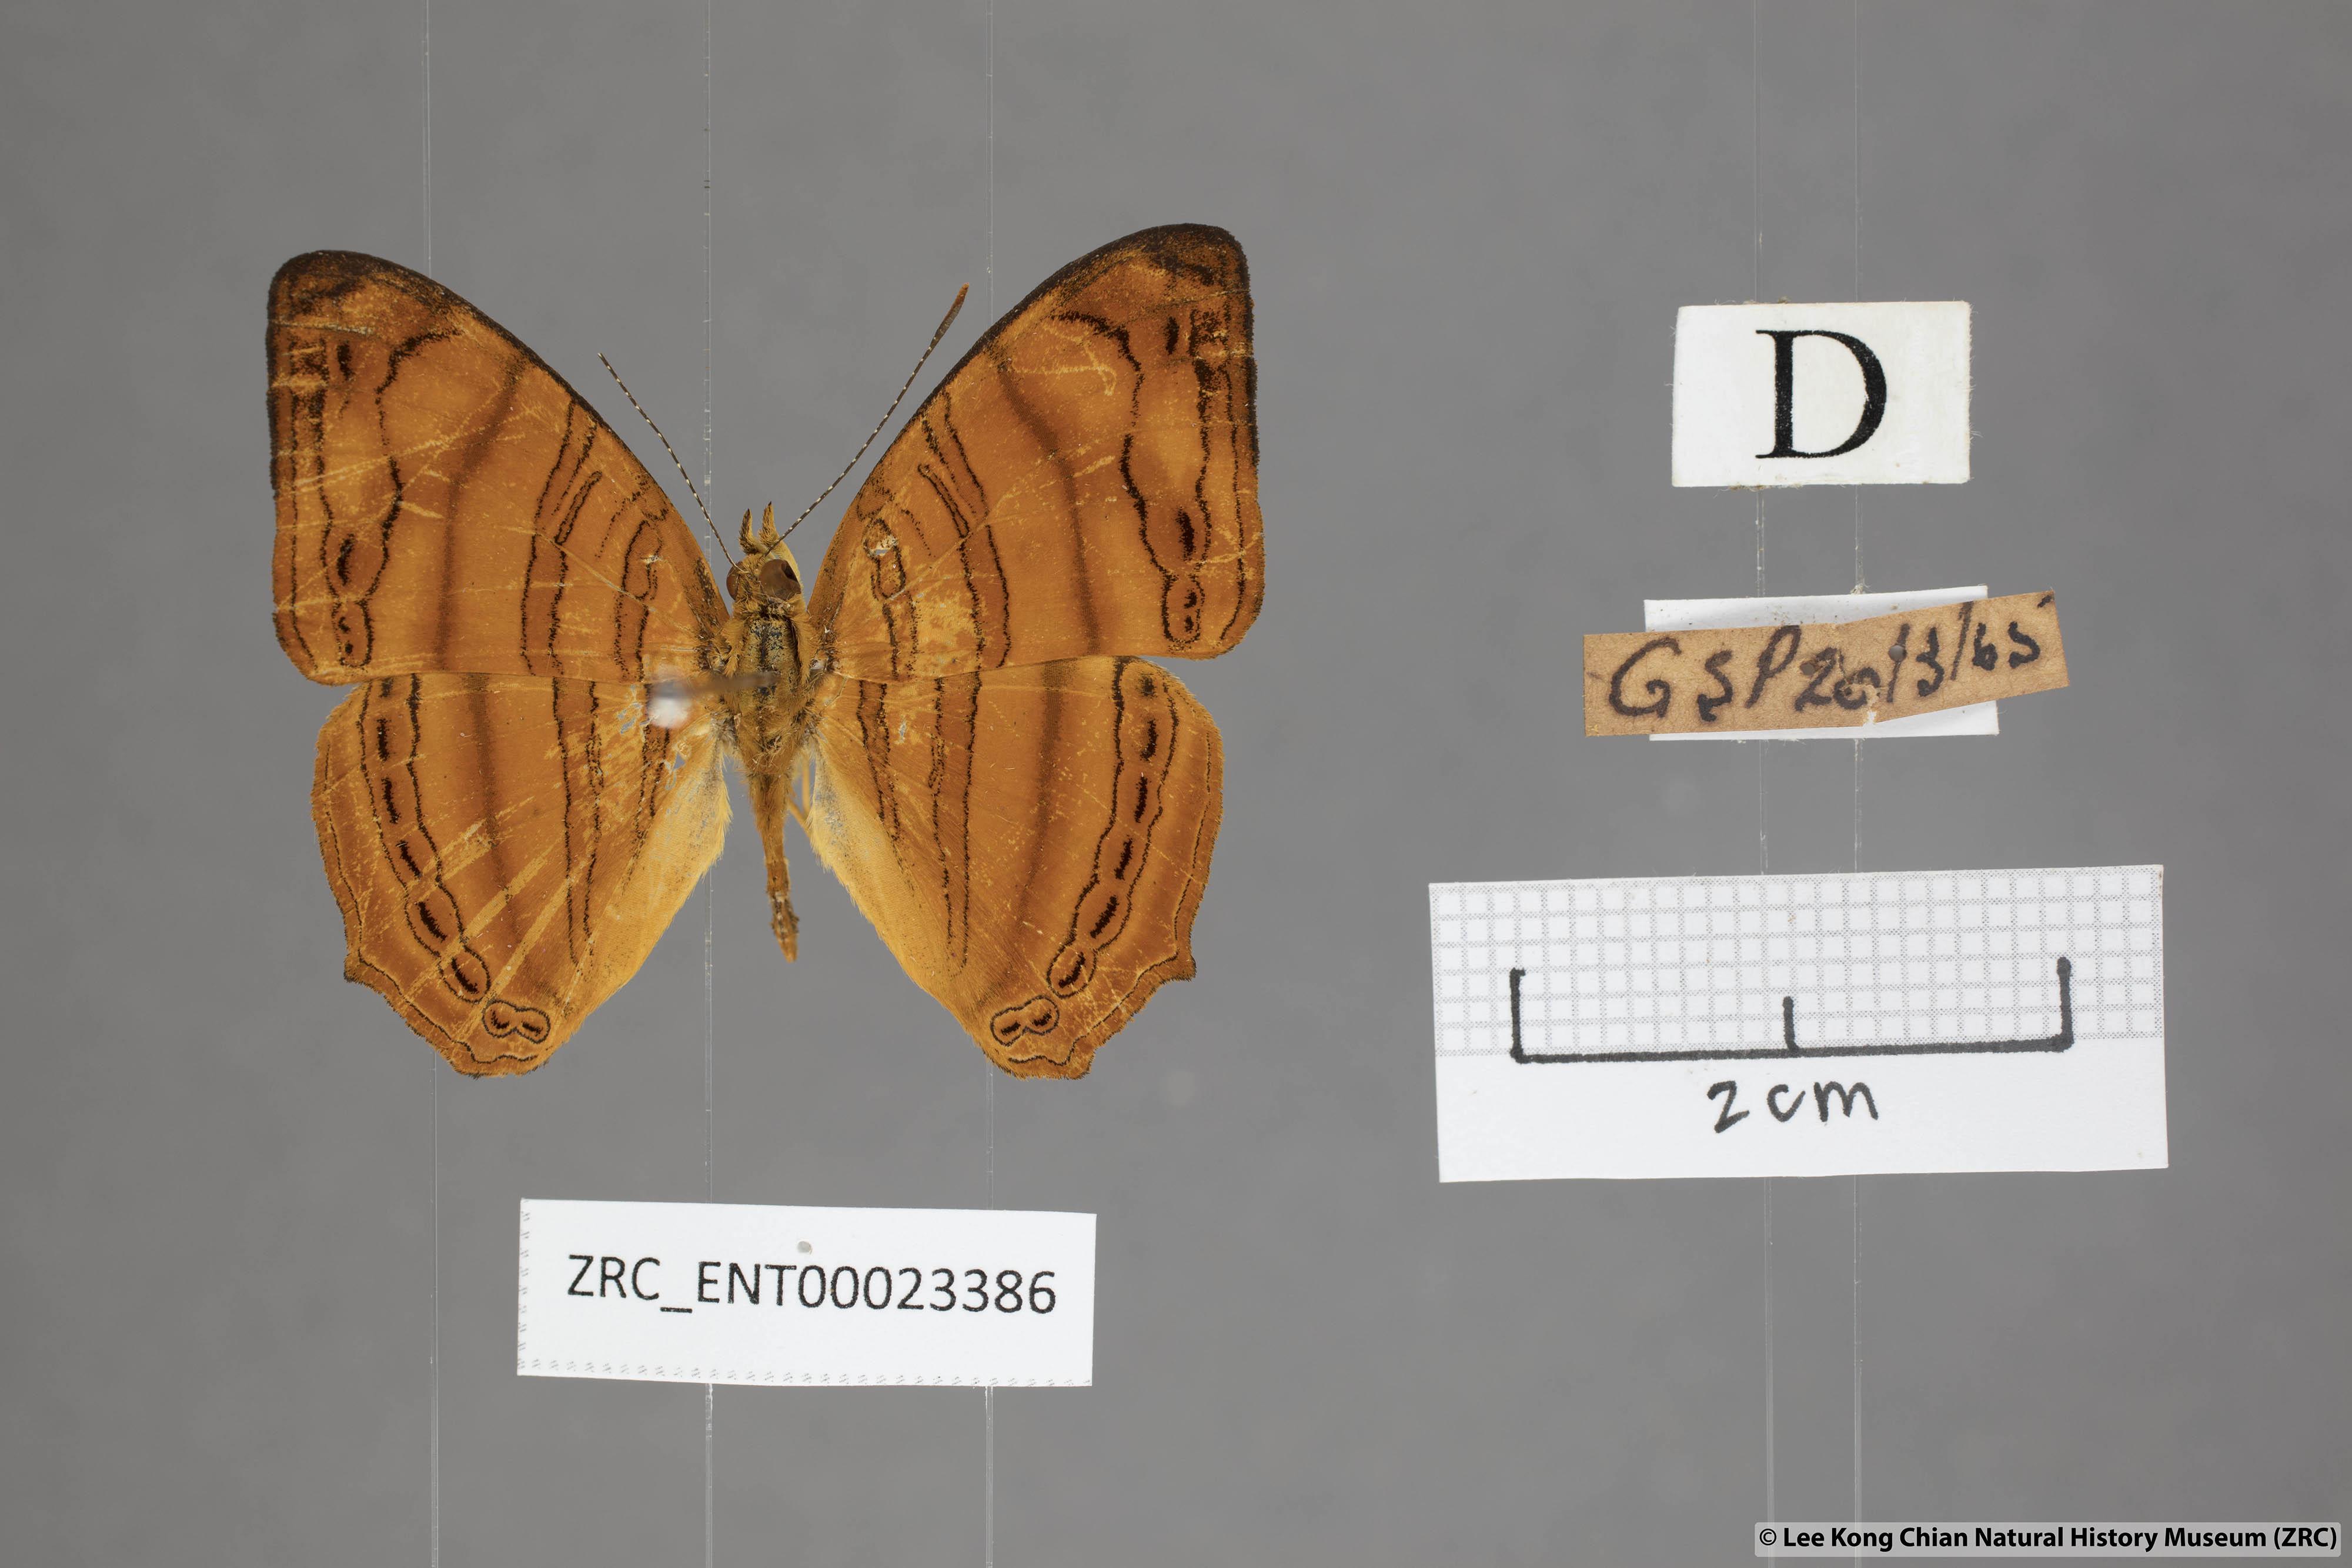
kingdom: Animalia
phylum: Arthropoda
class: Insecta
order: Lepidoptera
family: Nymphalidae
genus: Chersonesia
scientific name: Chersonesia rahria
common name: Wavy maplet
